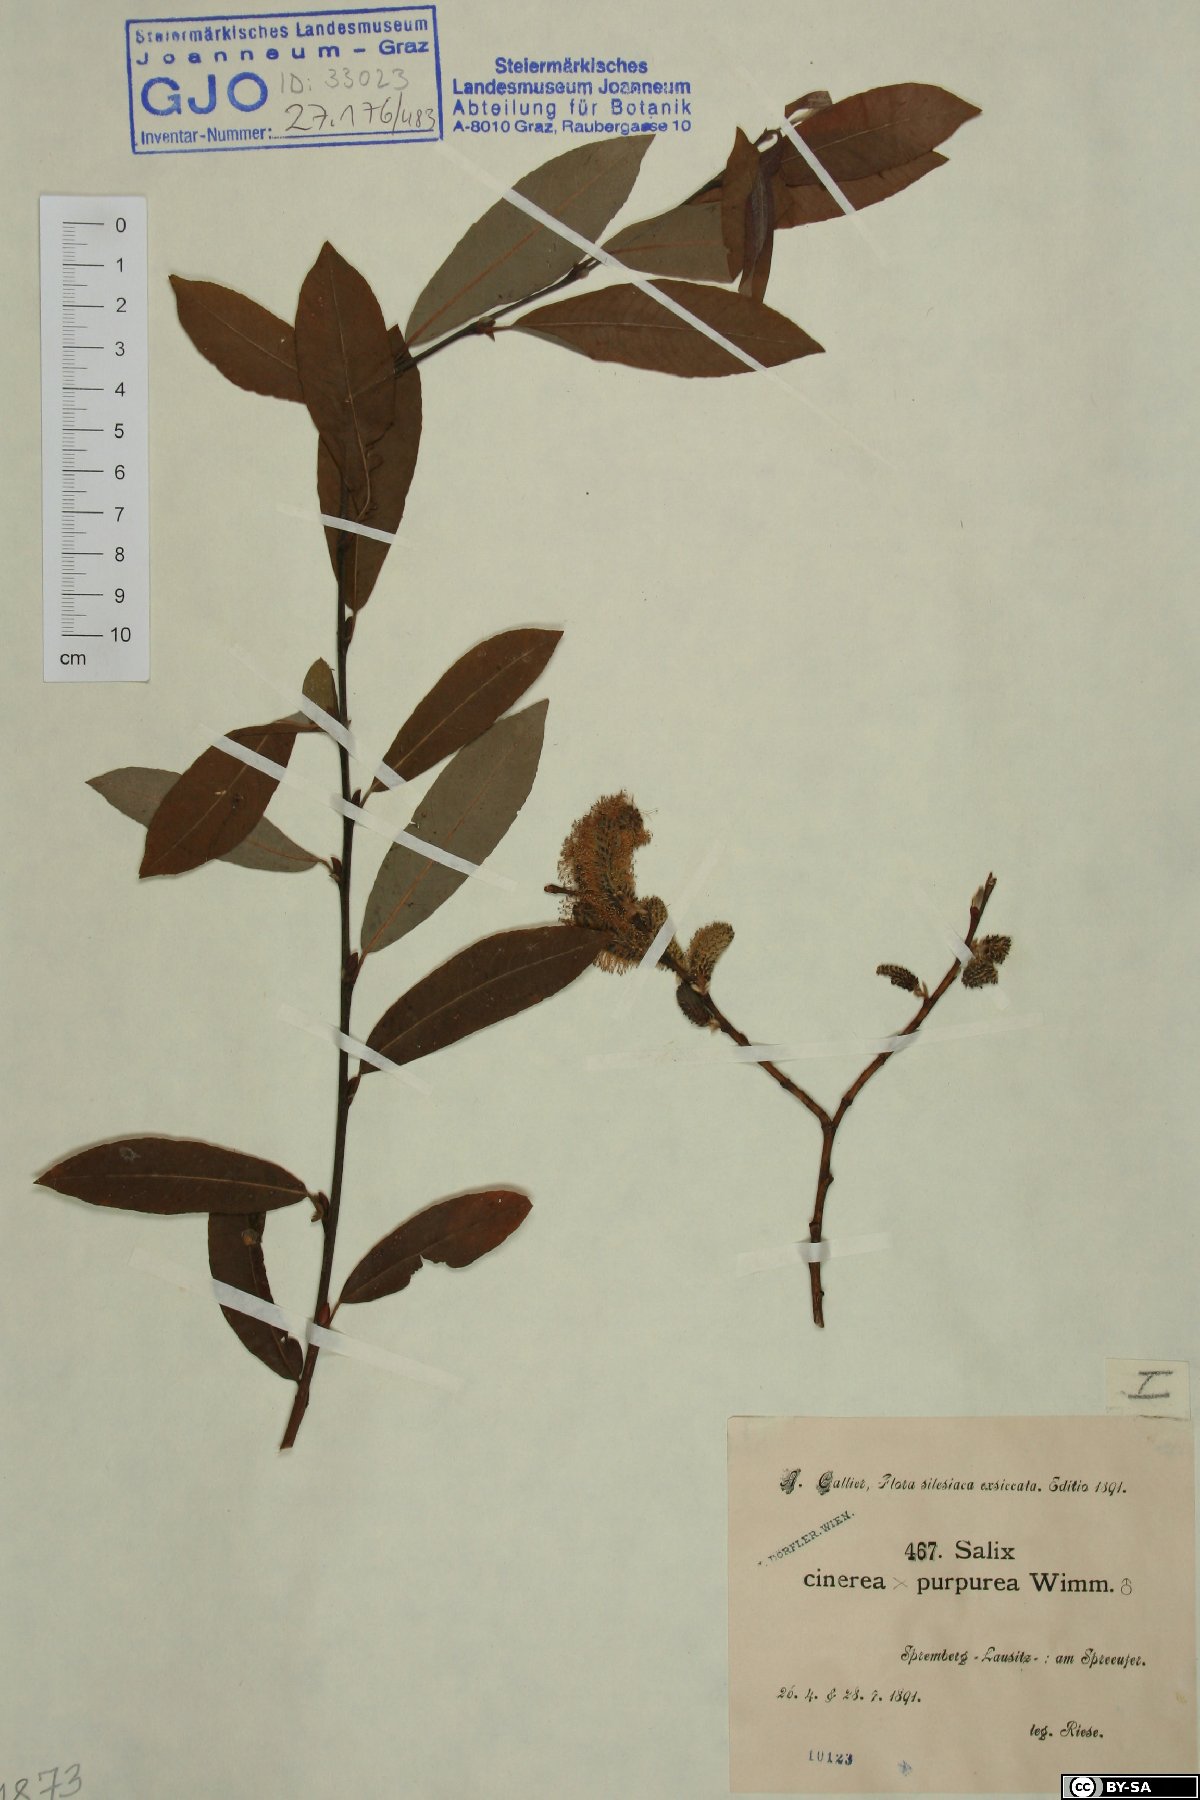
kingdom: Plantae
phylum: Tracheophyta
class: Magnoliopsida
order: Malpighiales
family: Salicaceae
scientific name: Salicaceae
